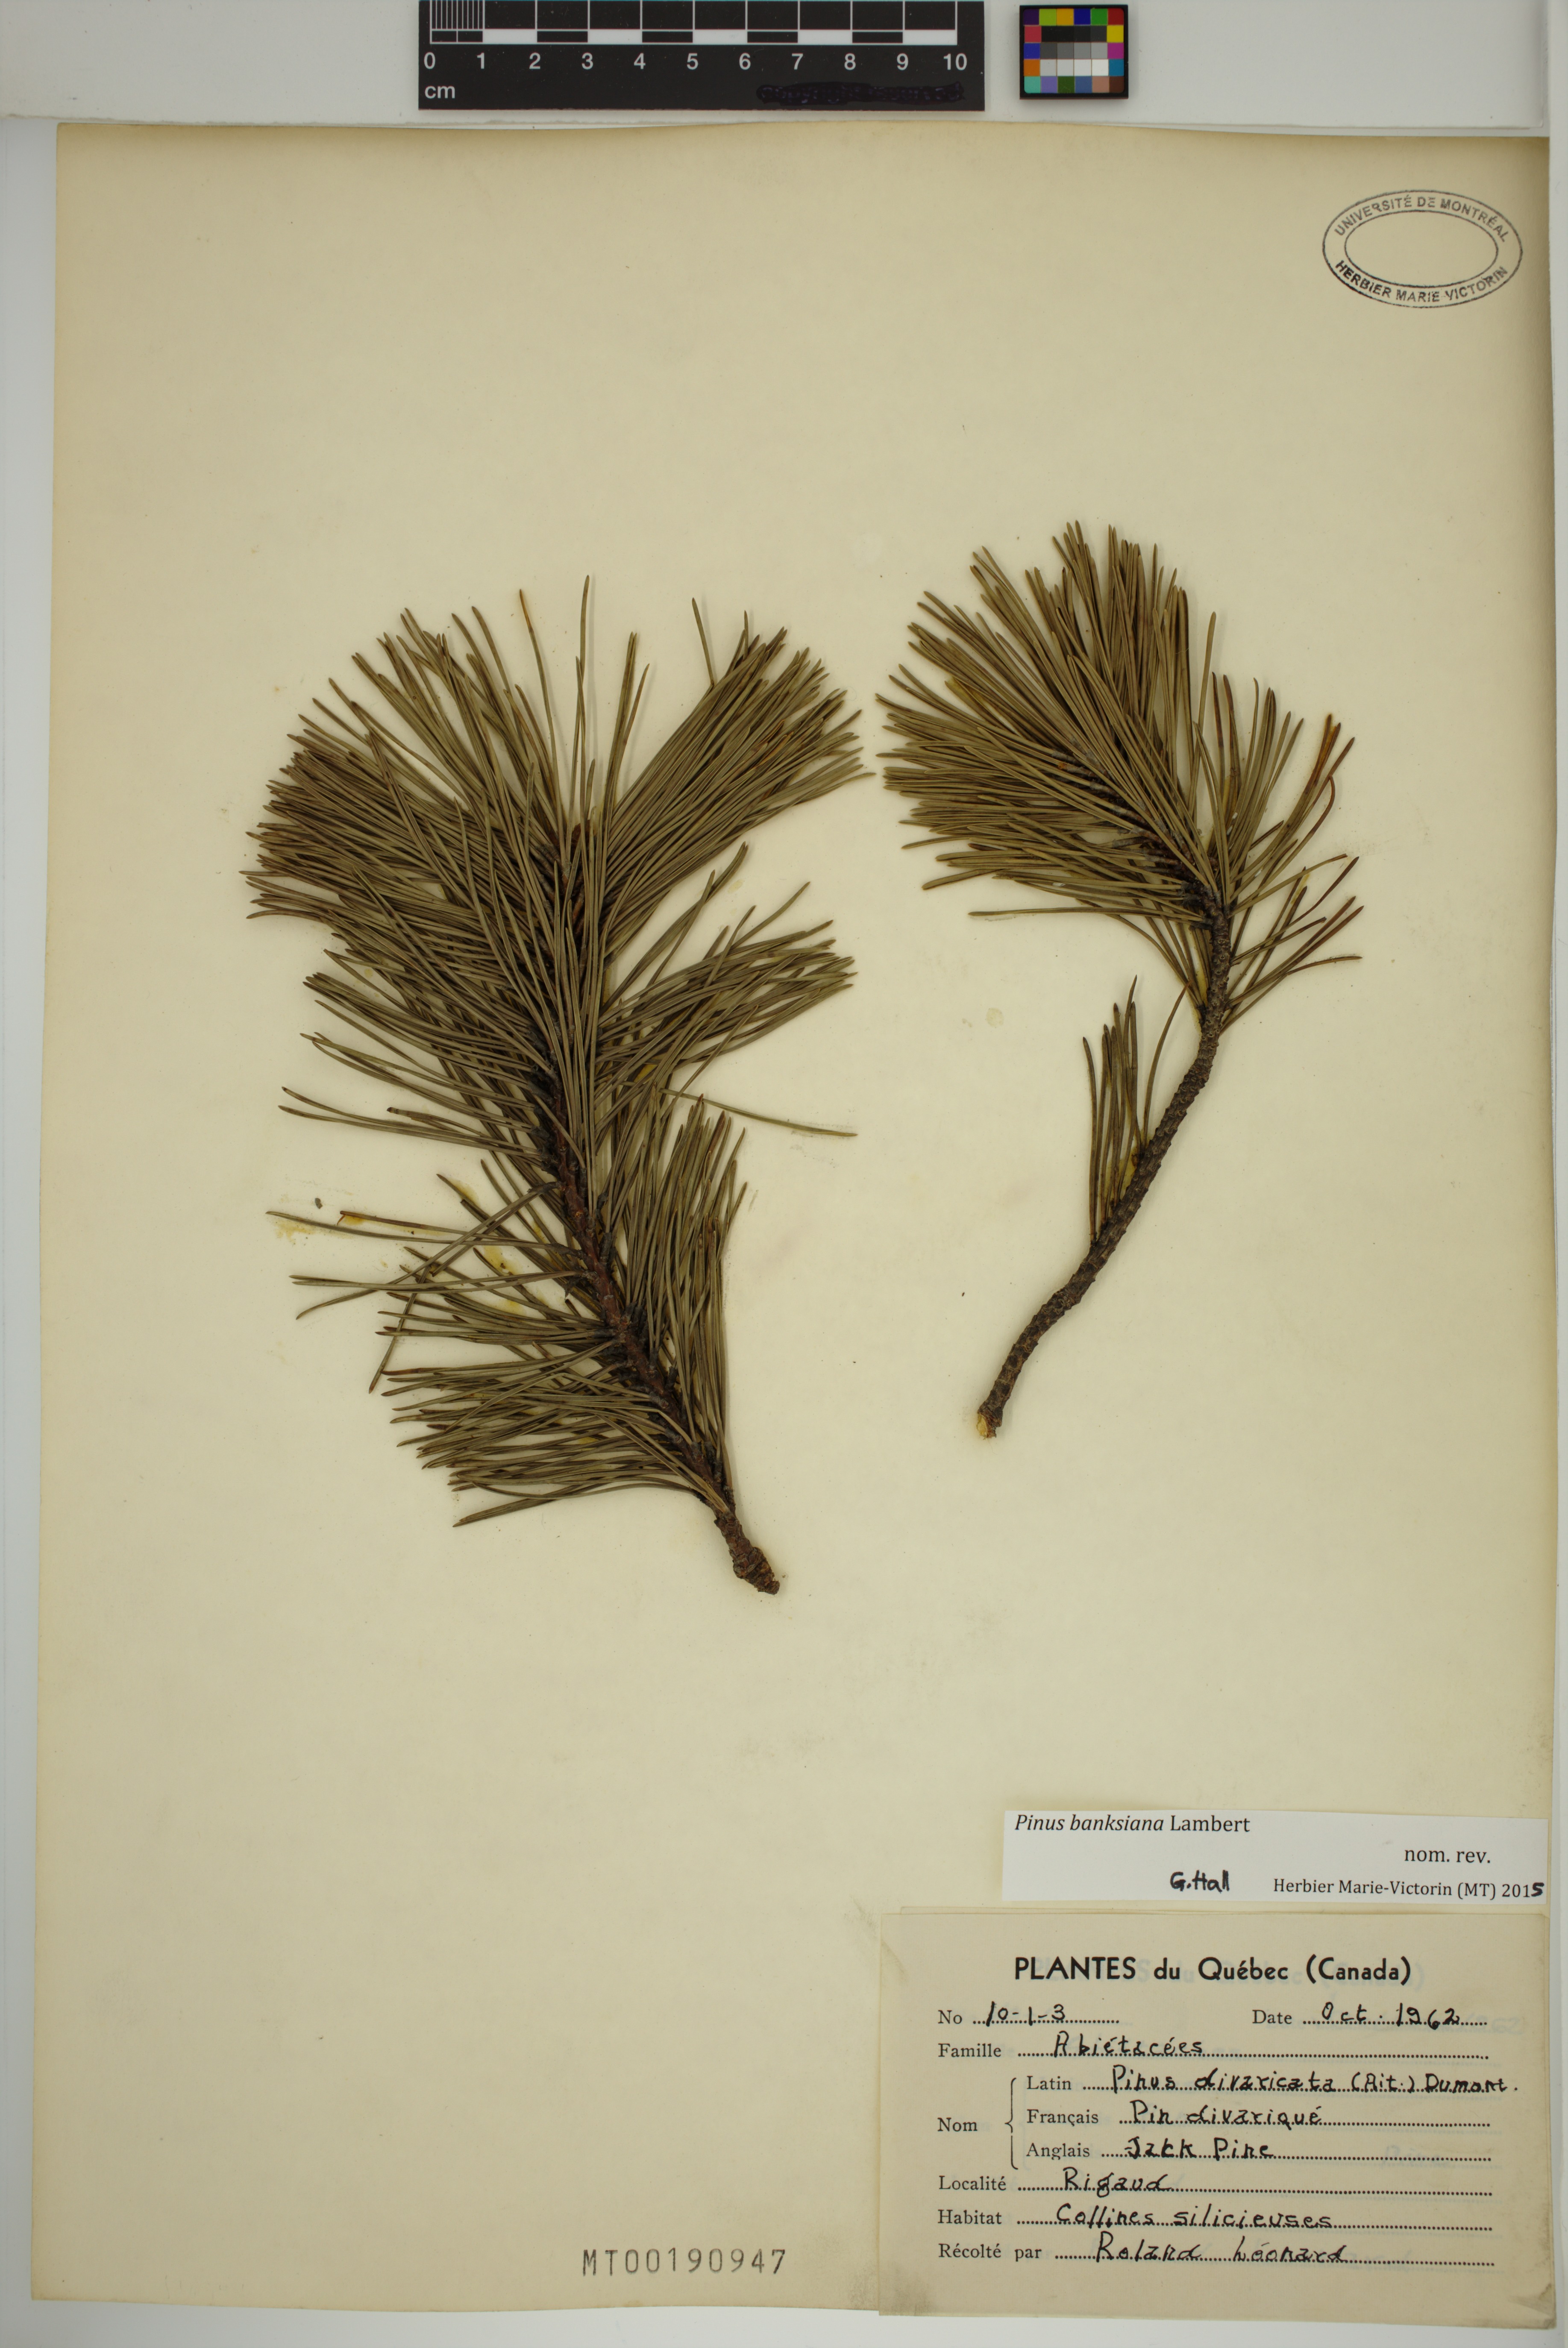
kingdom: Plantae
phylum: Tracheophyta
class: Pinopsida
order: Pinales
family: Pinaceae
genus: Pinus
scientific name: Pinus banksiana
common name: Jack pine
